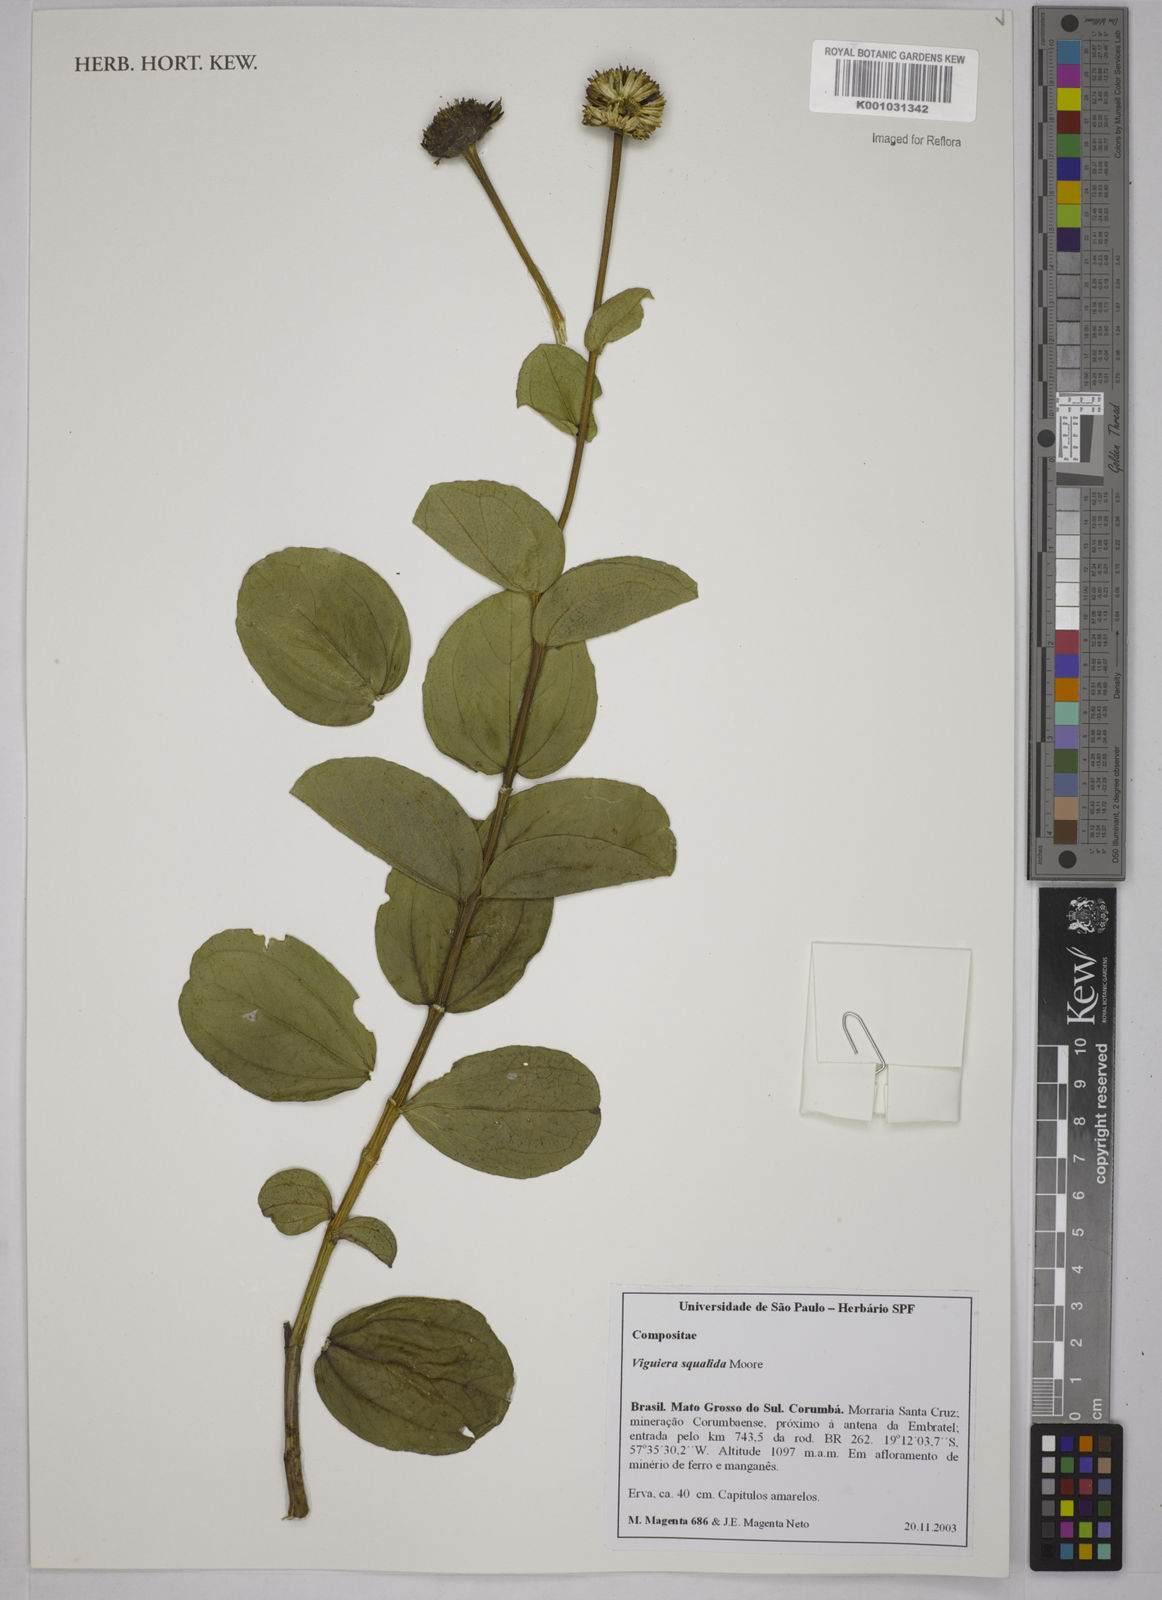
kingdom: Plantae
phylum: Tracheophyta
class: Magnoliopsida
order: Asterales
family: Asteraceae
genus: Aldama
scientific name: Aldama squalida
